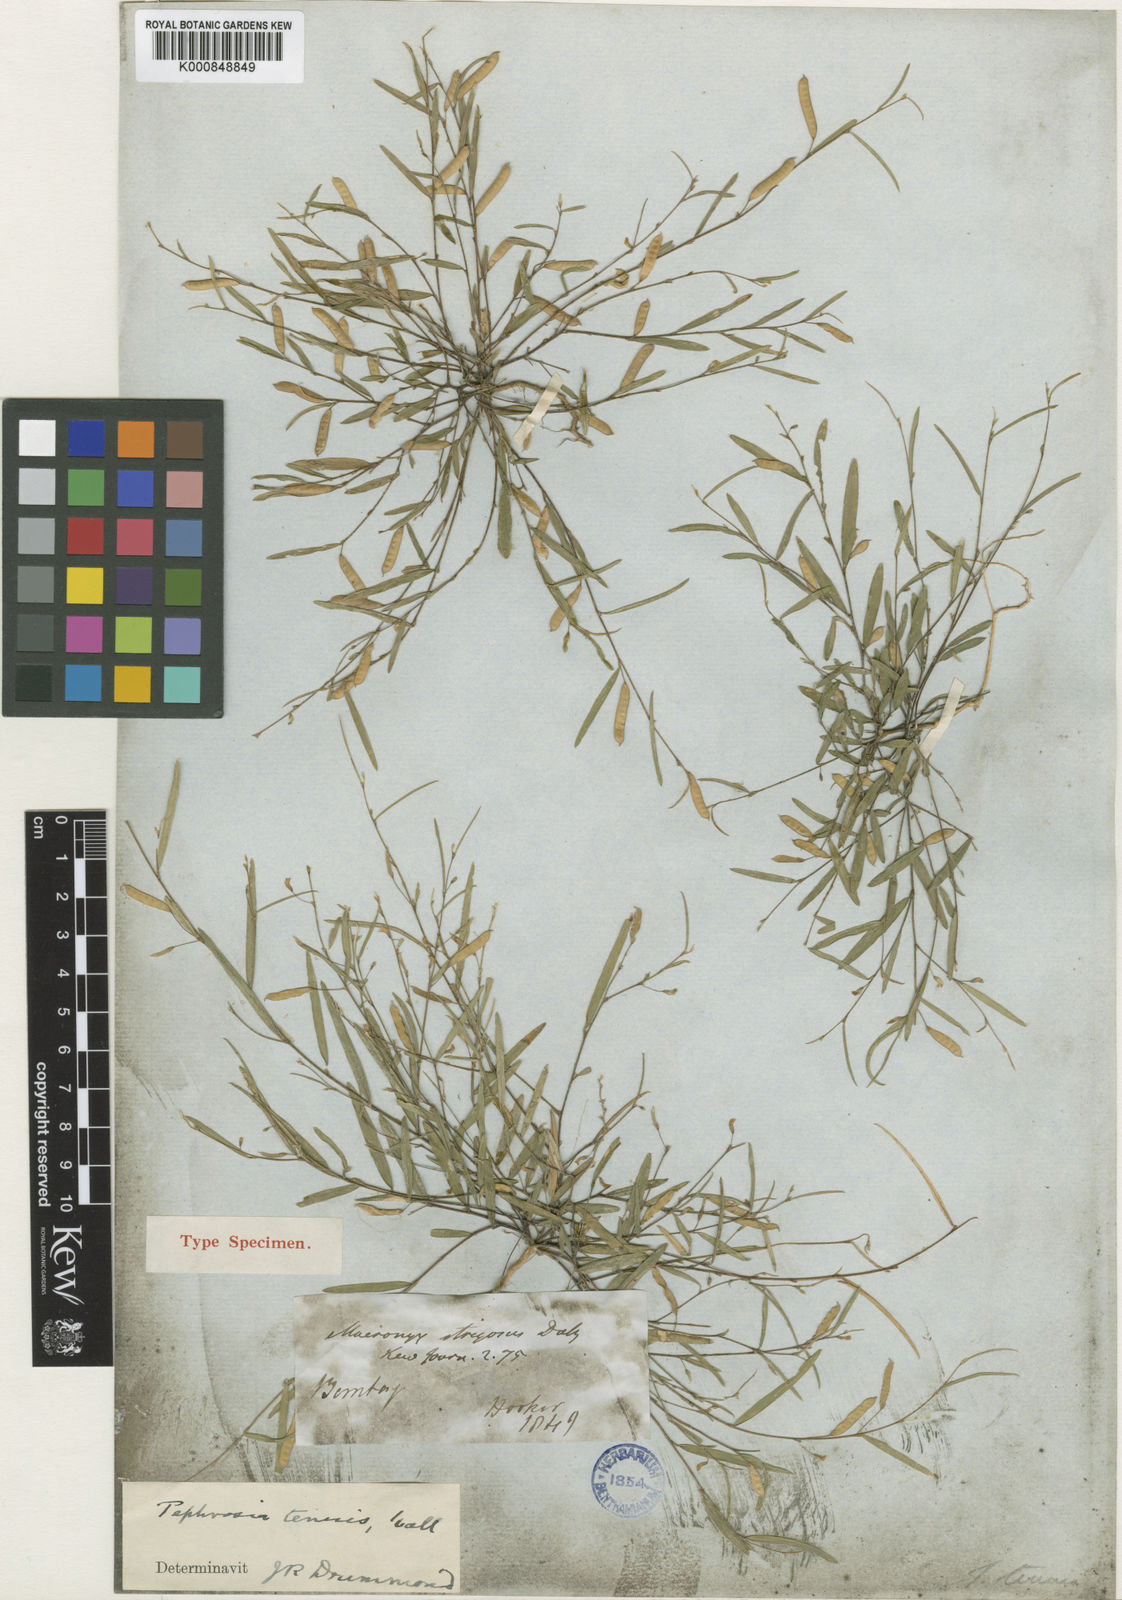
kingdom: Plantae
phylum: Tracheophyta
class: Magnoliopsida
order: Fabales
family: Fabaceae
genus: Tephrosia
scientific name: Tephrosia
